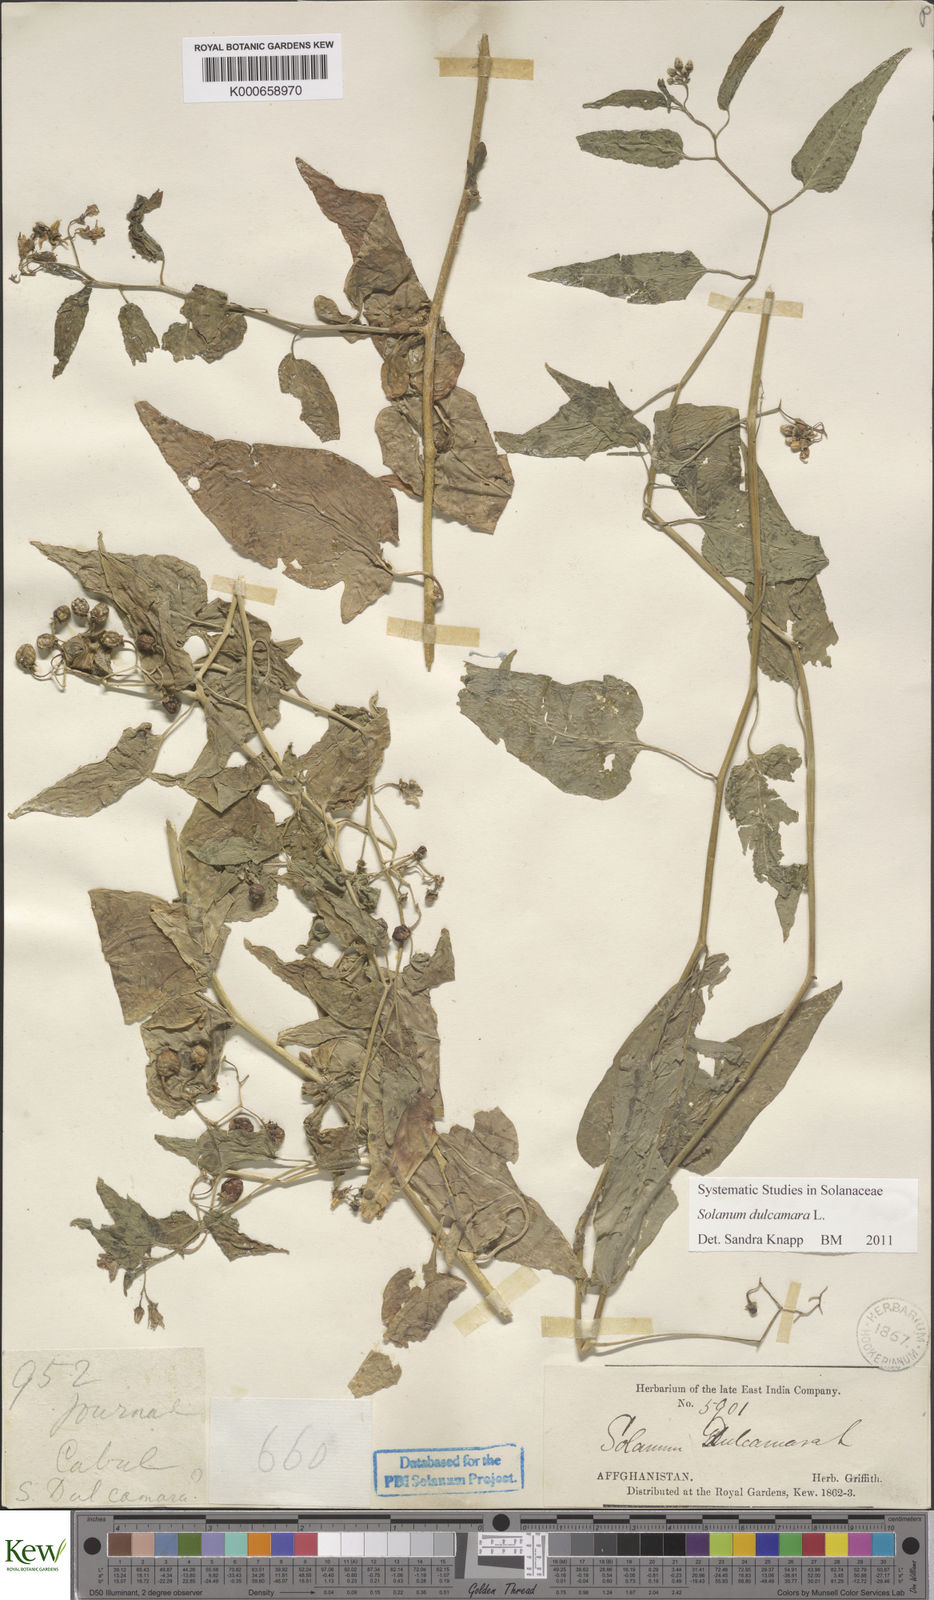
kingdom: Plantae
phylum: Tracheophyta
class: Magnoliopsida
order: Solanales
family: Solanaceae
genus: Solanum
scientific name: Solanum dulcamara
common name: Climbing nightshade
